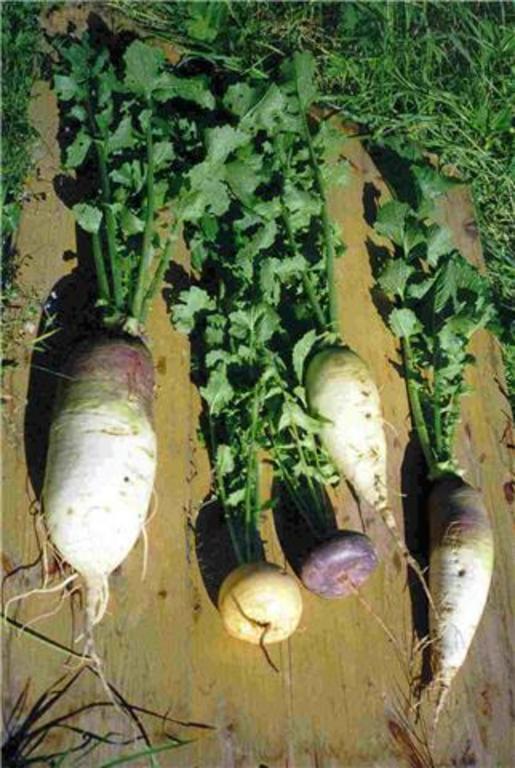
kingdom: Plantae
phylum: Tracheophyta
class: Magnoliopsida
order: Brassicales
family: Brassicaceae
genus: Brassica
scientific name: Brassica rapa
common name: Field mustard
